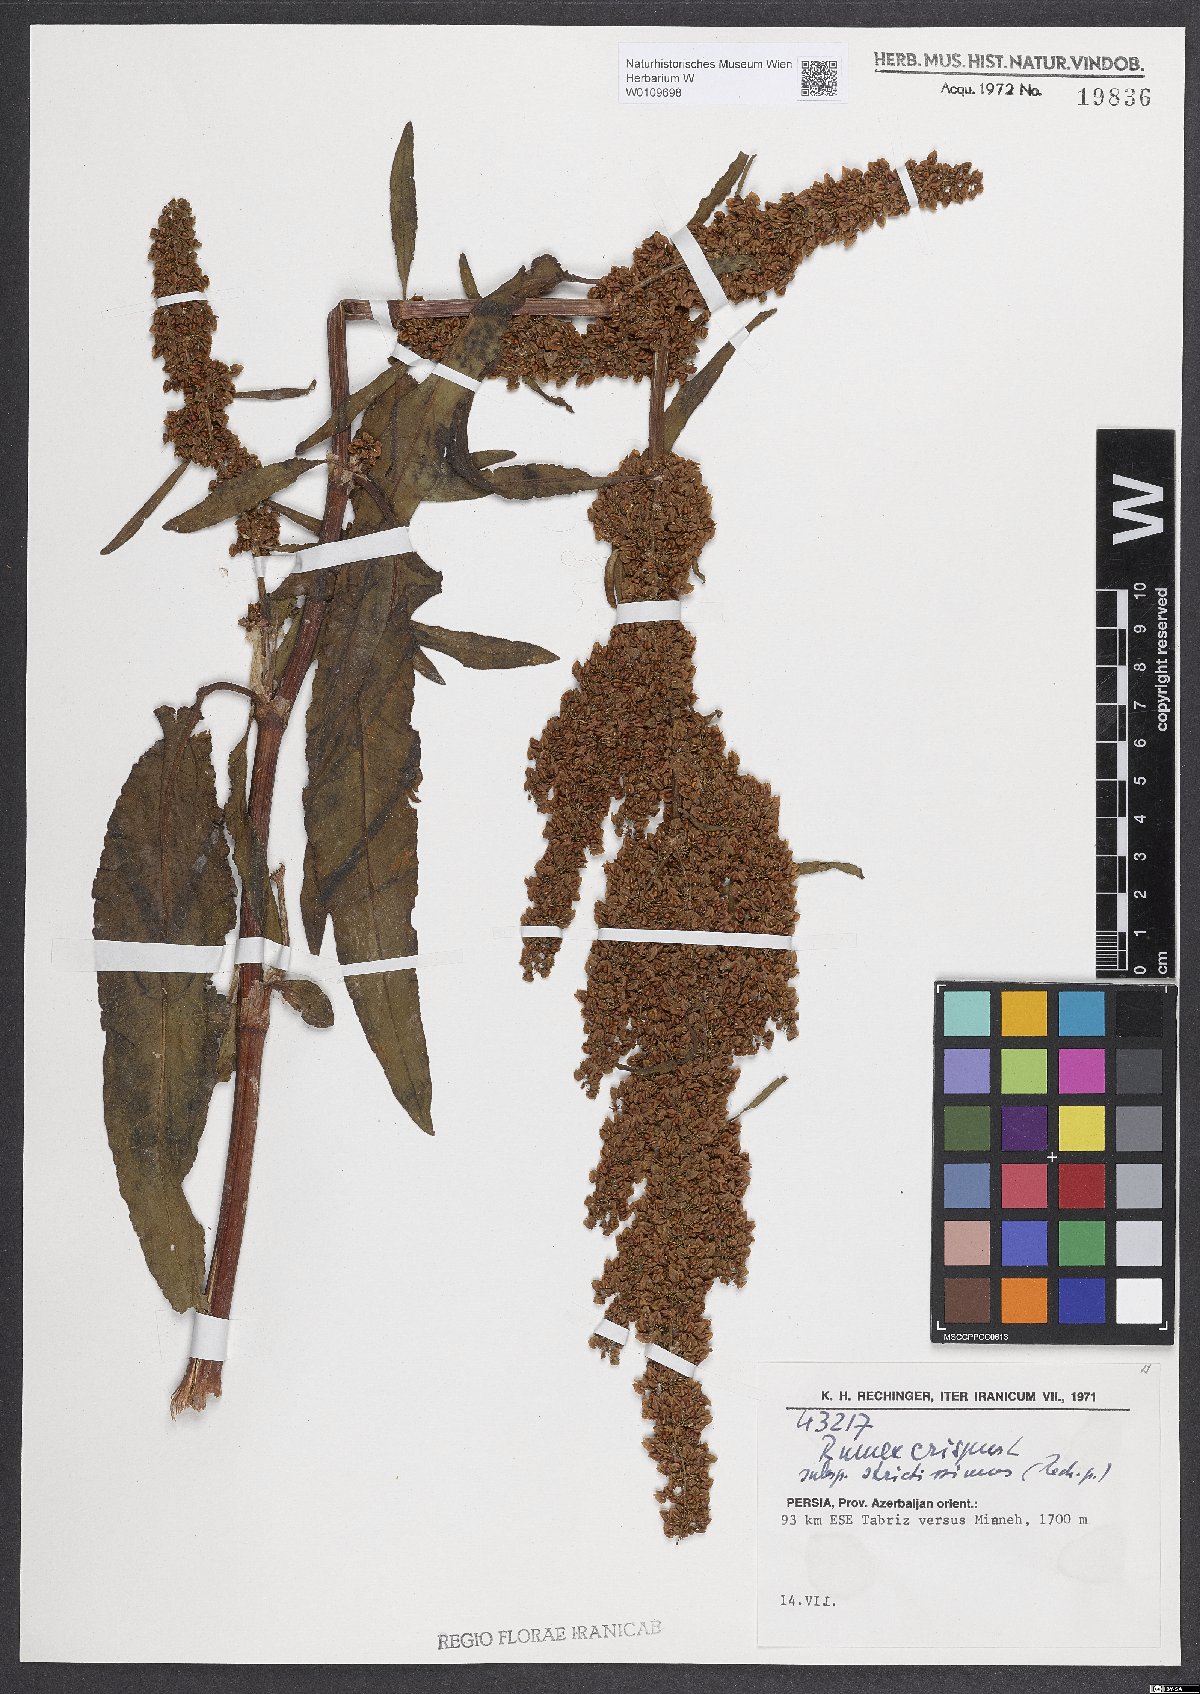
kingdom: Plantae
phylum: Tracheophyta
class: Magnoliopsida
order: Caryophyllales
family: Polygonaceae
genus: Rumex
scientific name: Rumex crispus
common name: Curled dock
